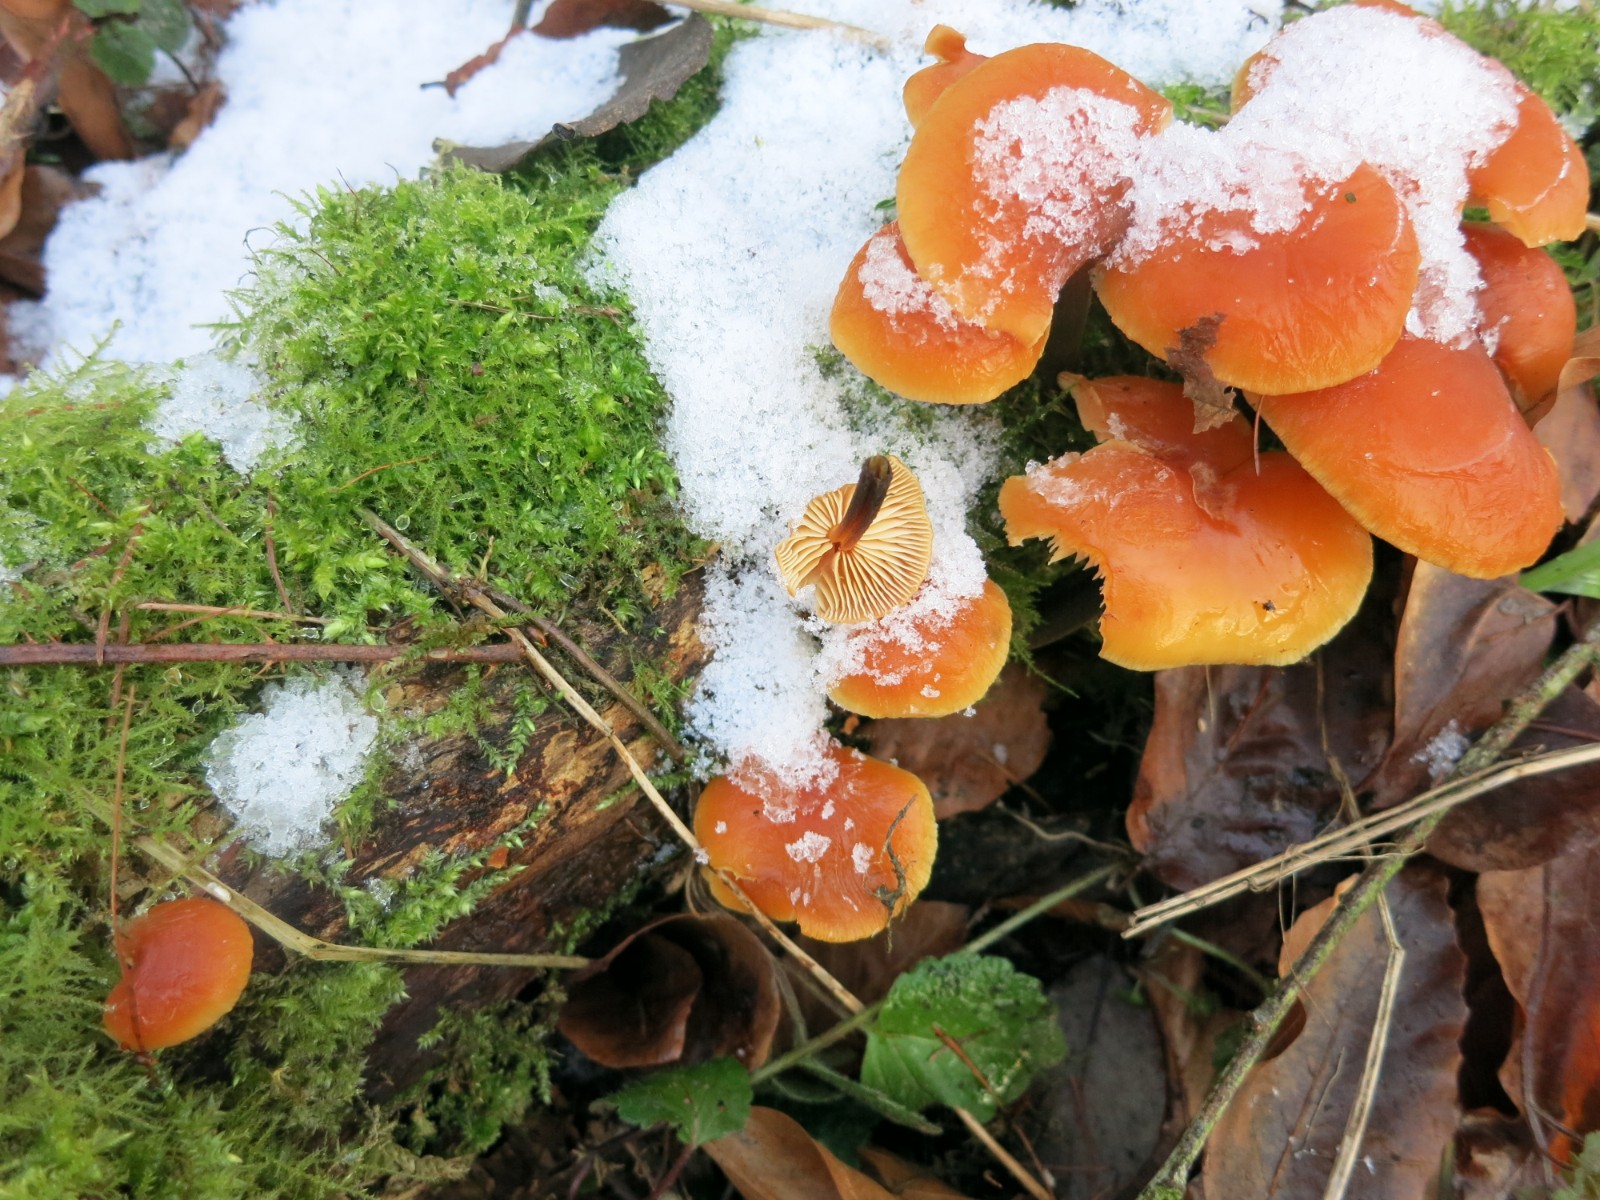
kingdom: Fungi
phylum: Basidiomycota
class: Agaricomycetes
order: Agaricales
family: Physalacriaceae
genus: Flammulina
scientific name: Flammulina
